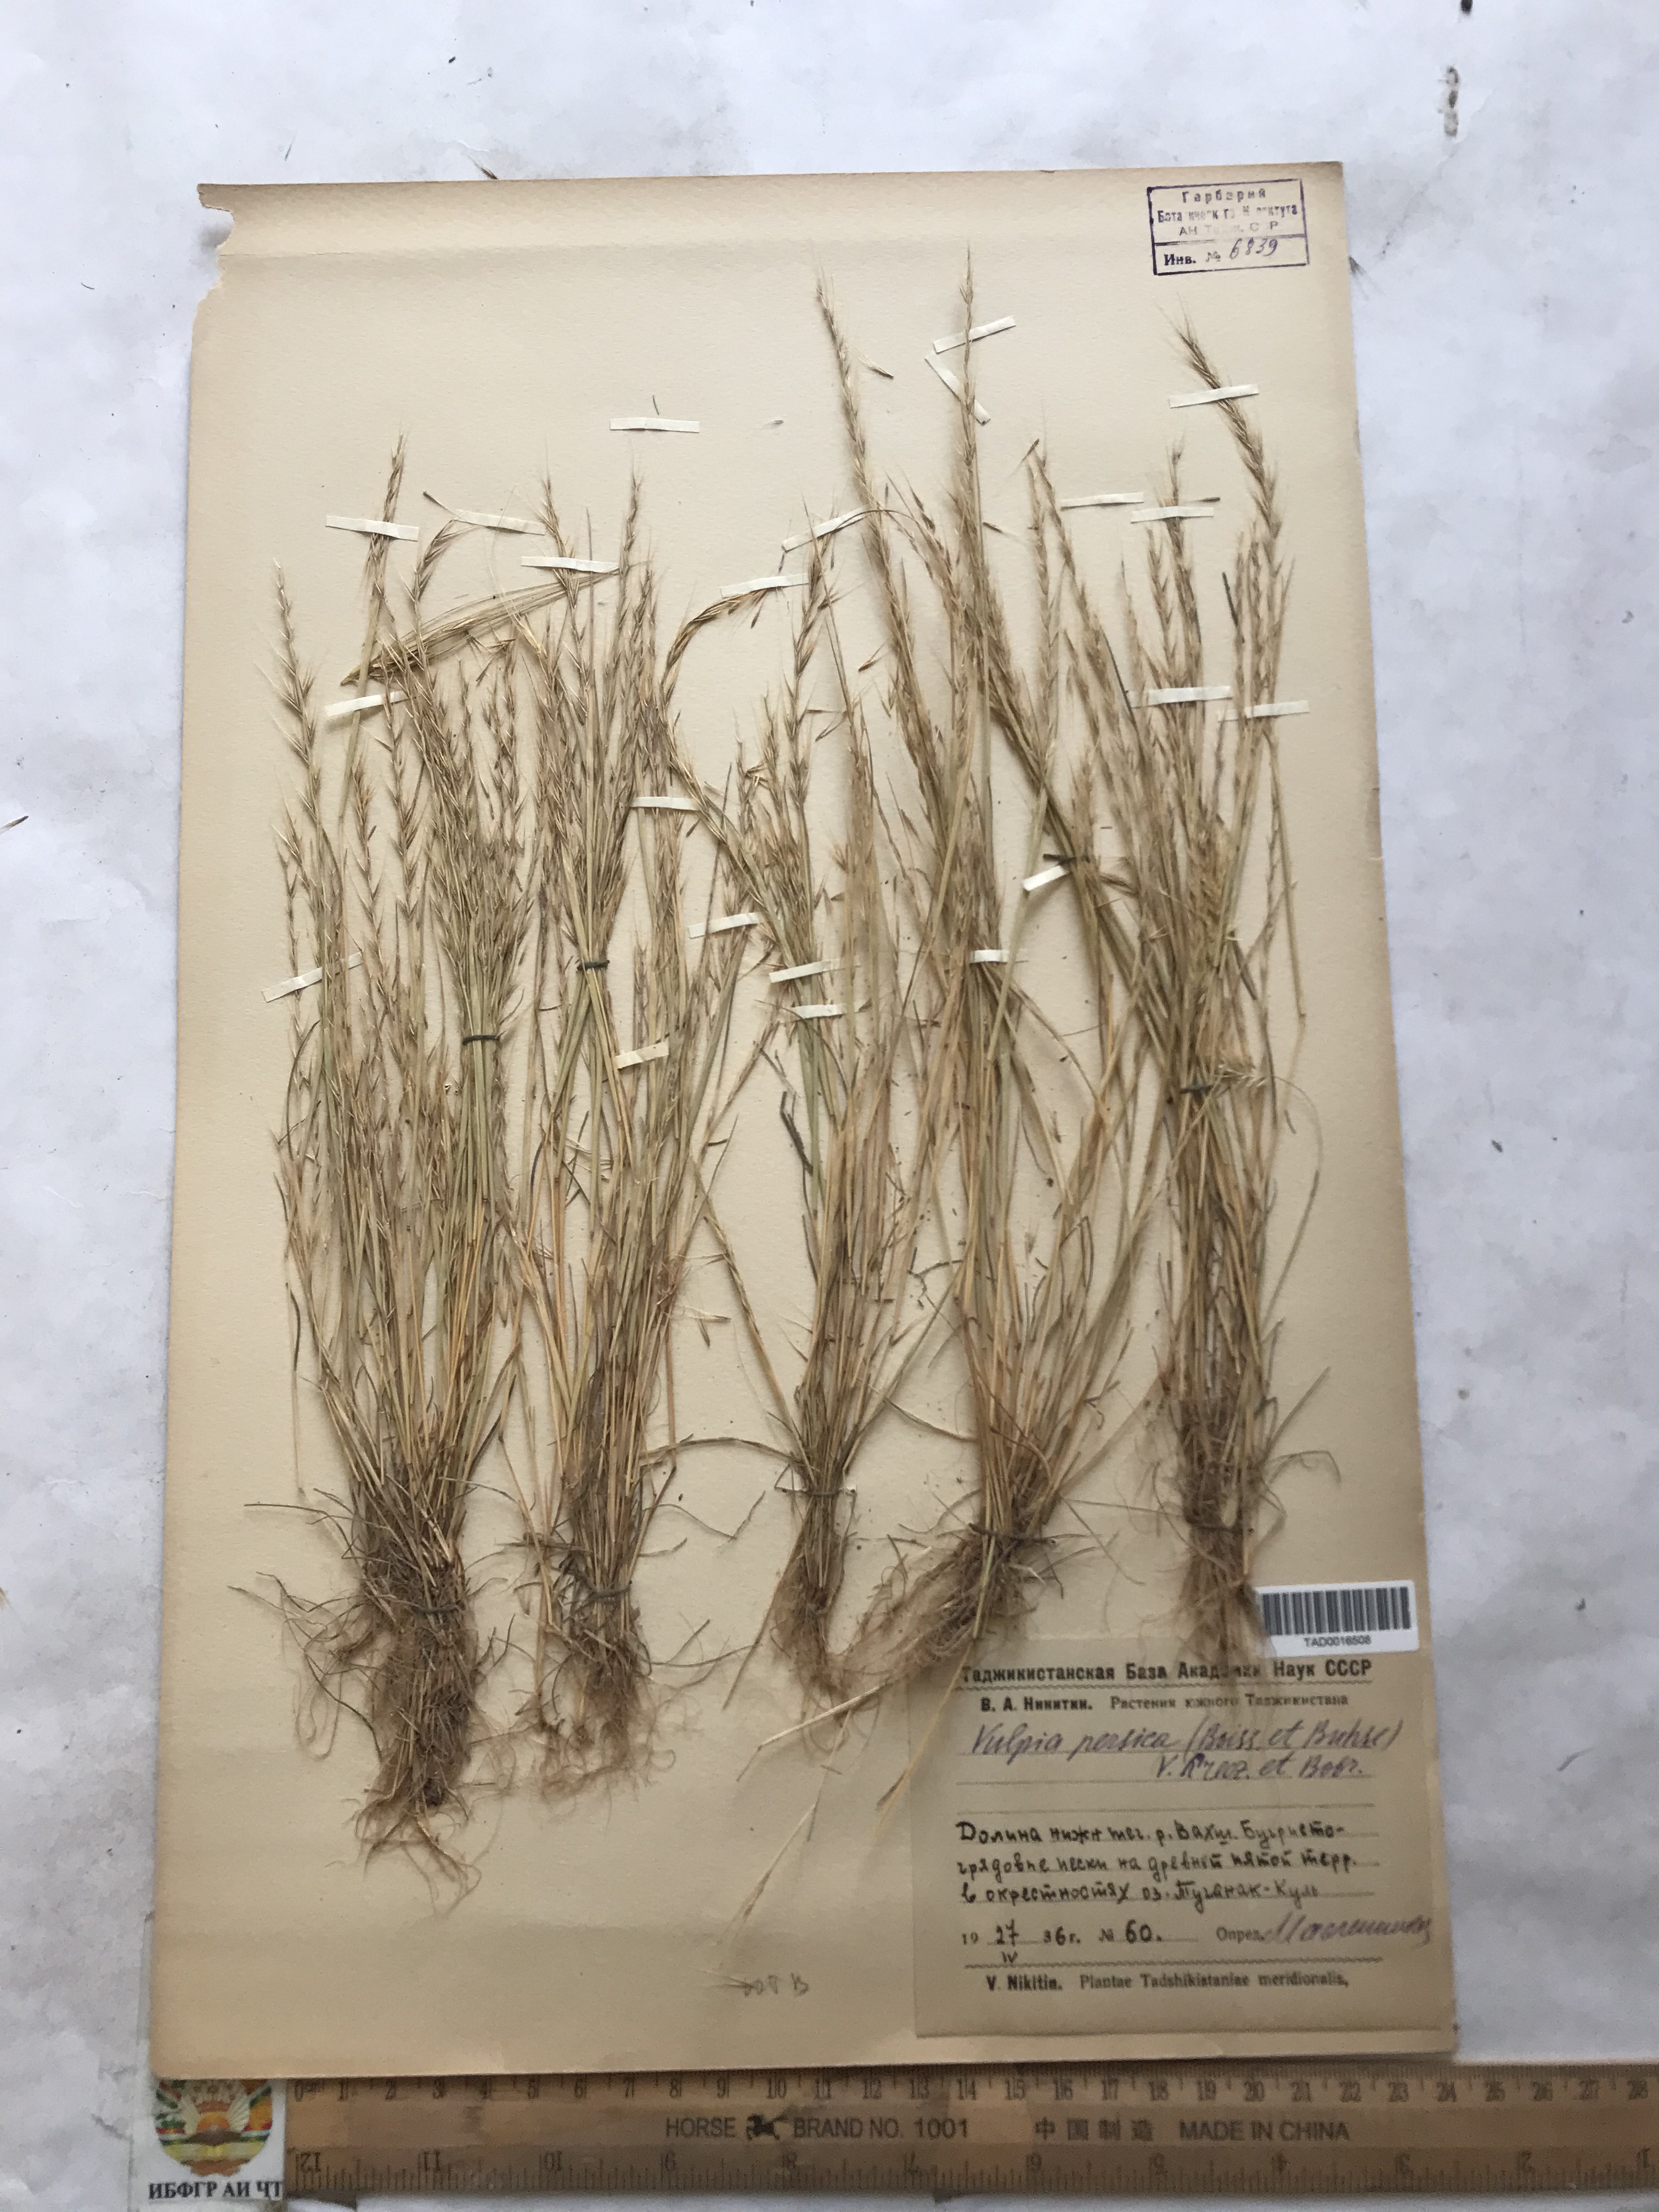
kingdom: Plantae
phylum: Tracheophyta
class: Liliopsida
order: Poales
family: Poaceae
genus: Festuca
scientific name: Festuca Vulpia persica
